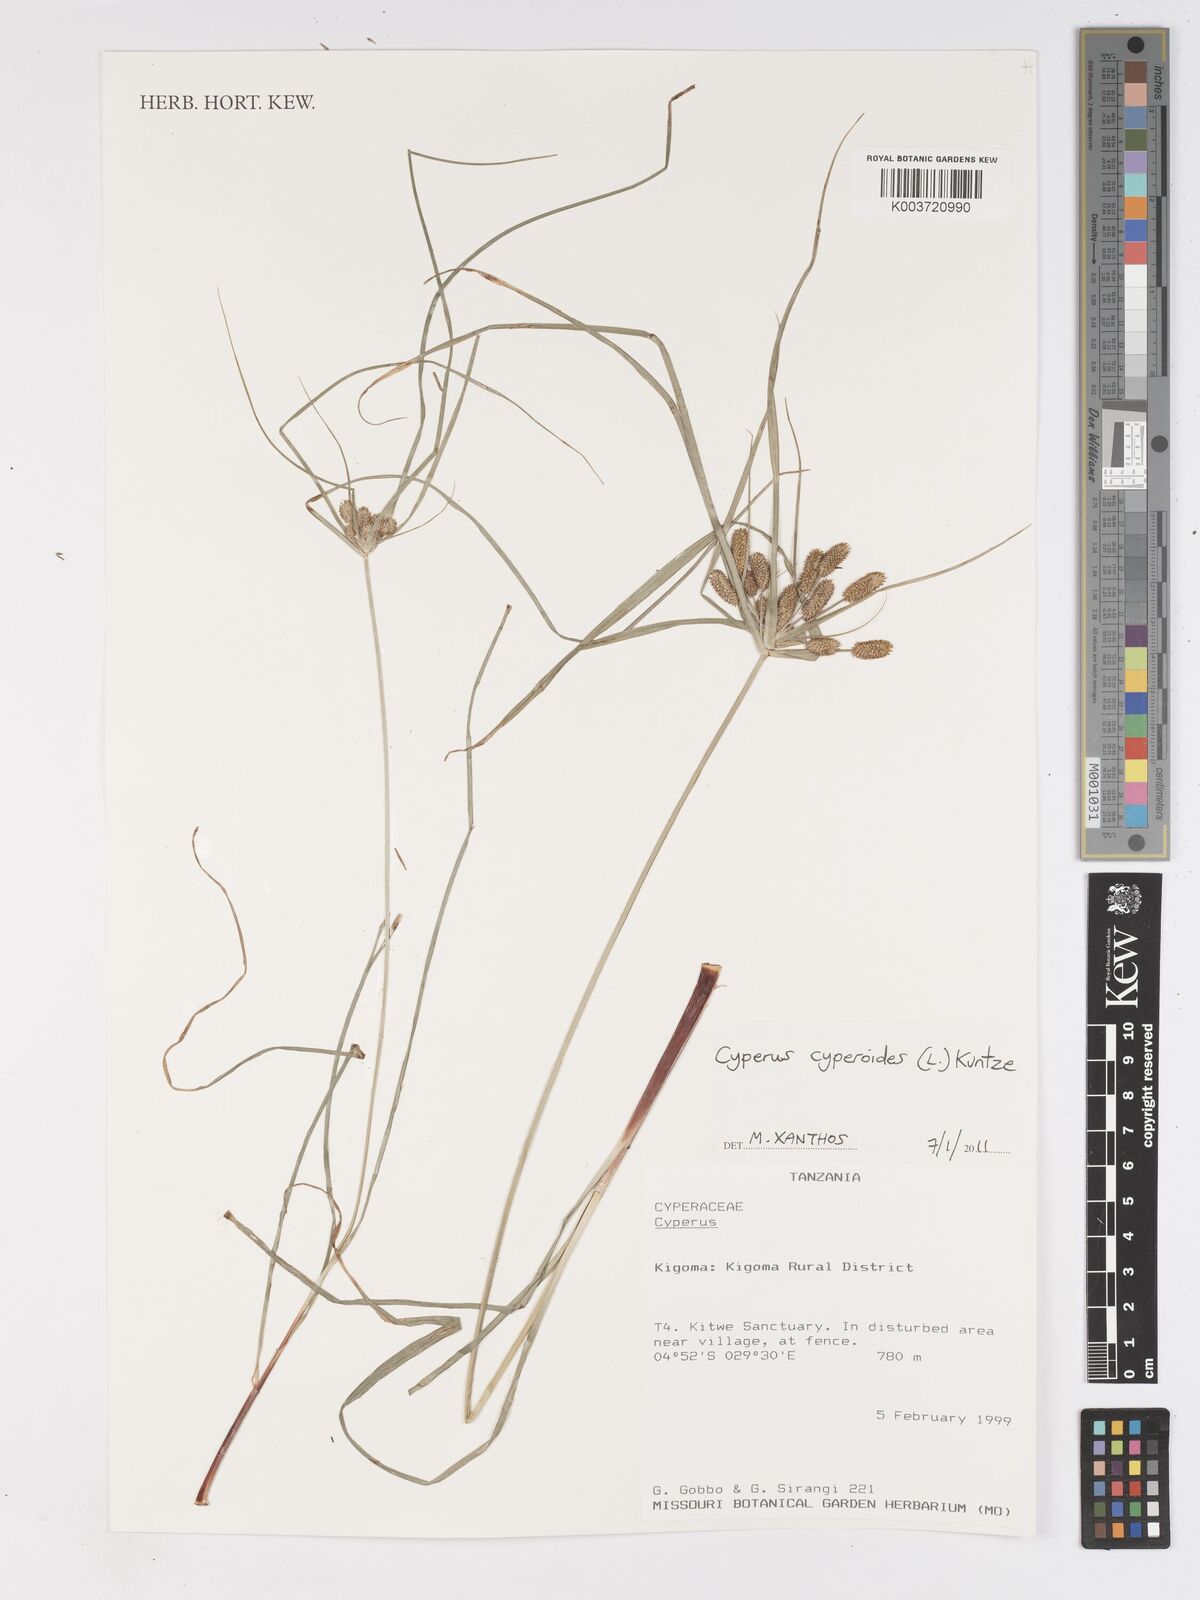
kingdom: Plantae
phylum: Tracheophyta
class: Liliopsida
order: Poales
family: Cyperaceae
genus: Cyperus
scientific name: Cyperus
